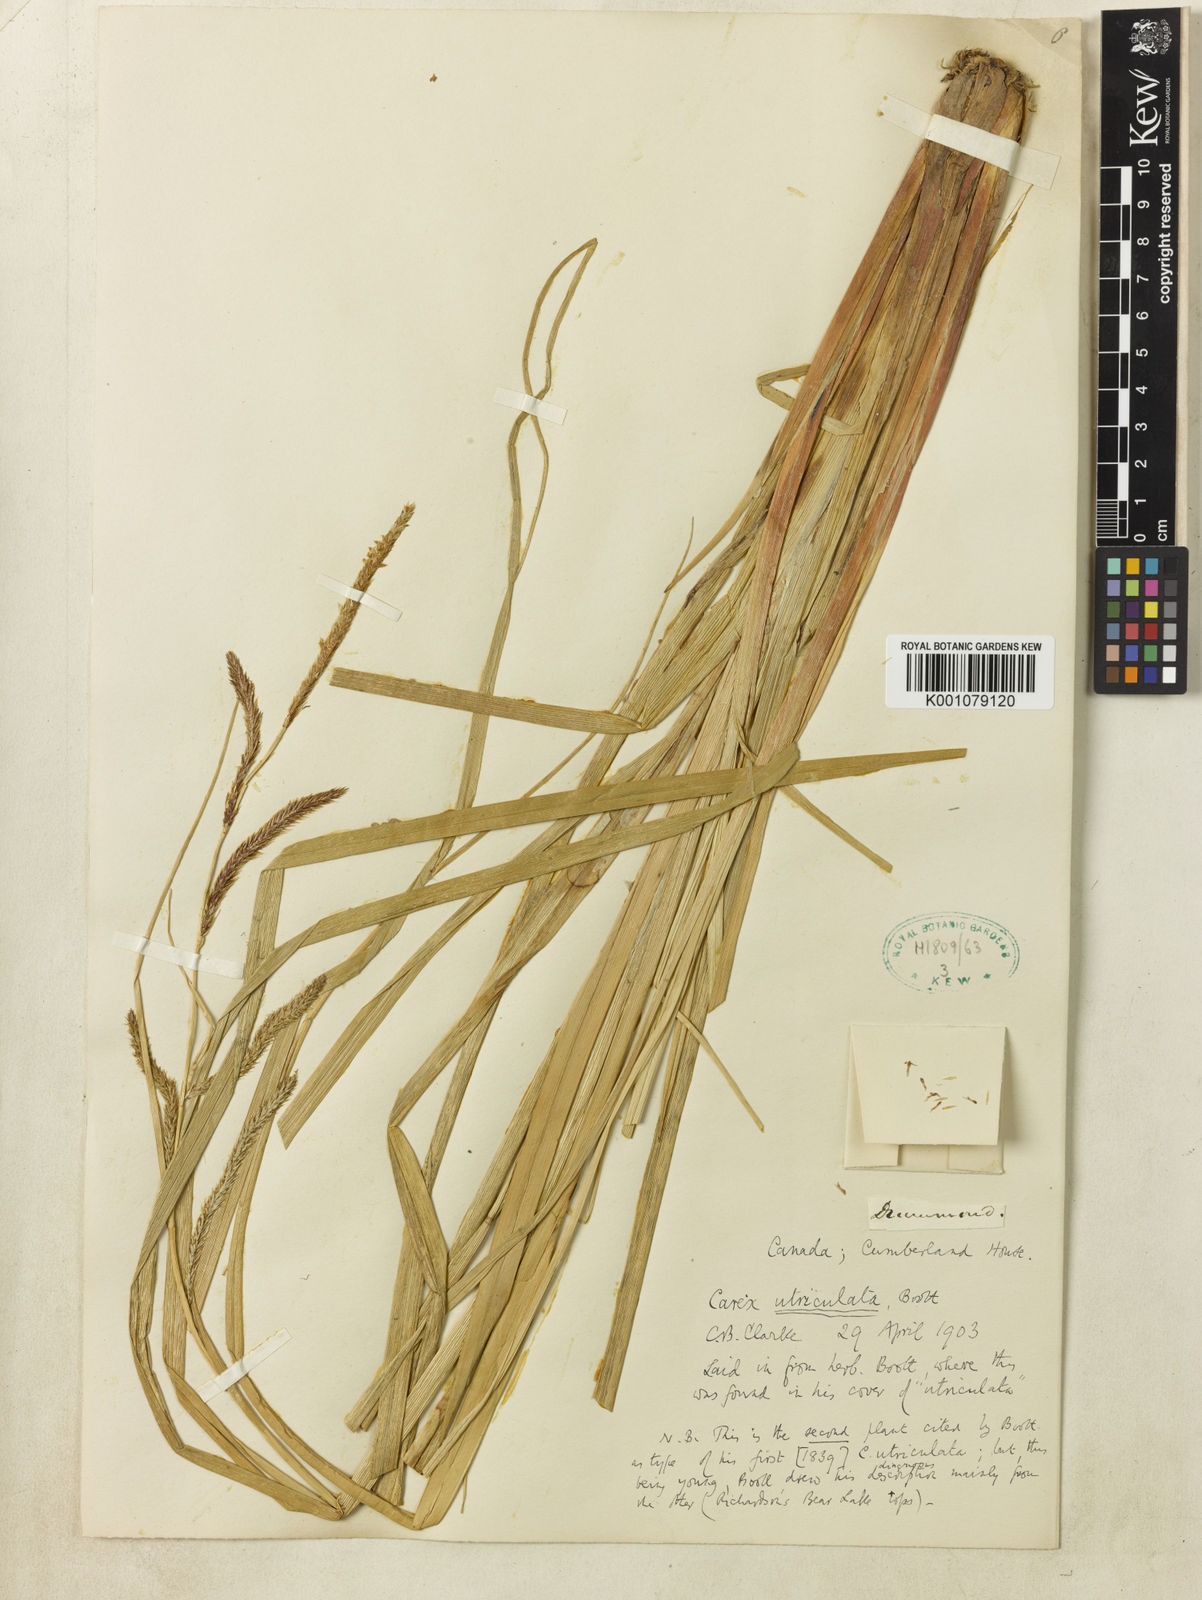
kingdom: Plantae
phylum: Tracheophyta
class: Liliopsida
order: Poales
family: Cyperaceae
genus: Carex
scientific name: Carex rostrata
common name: Bottle sedge
